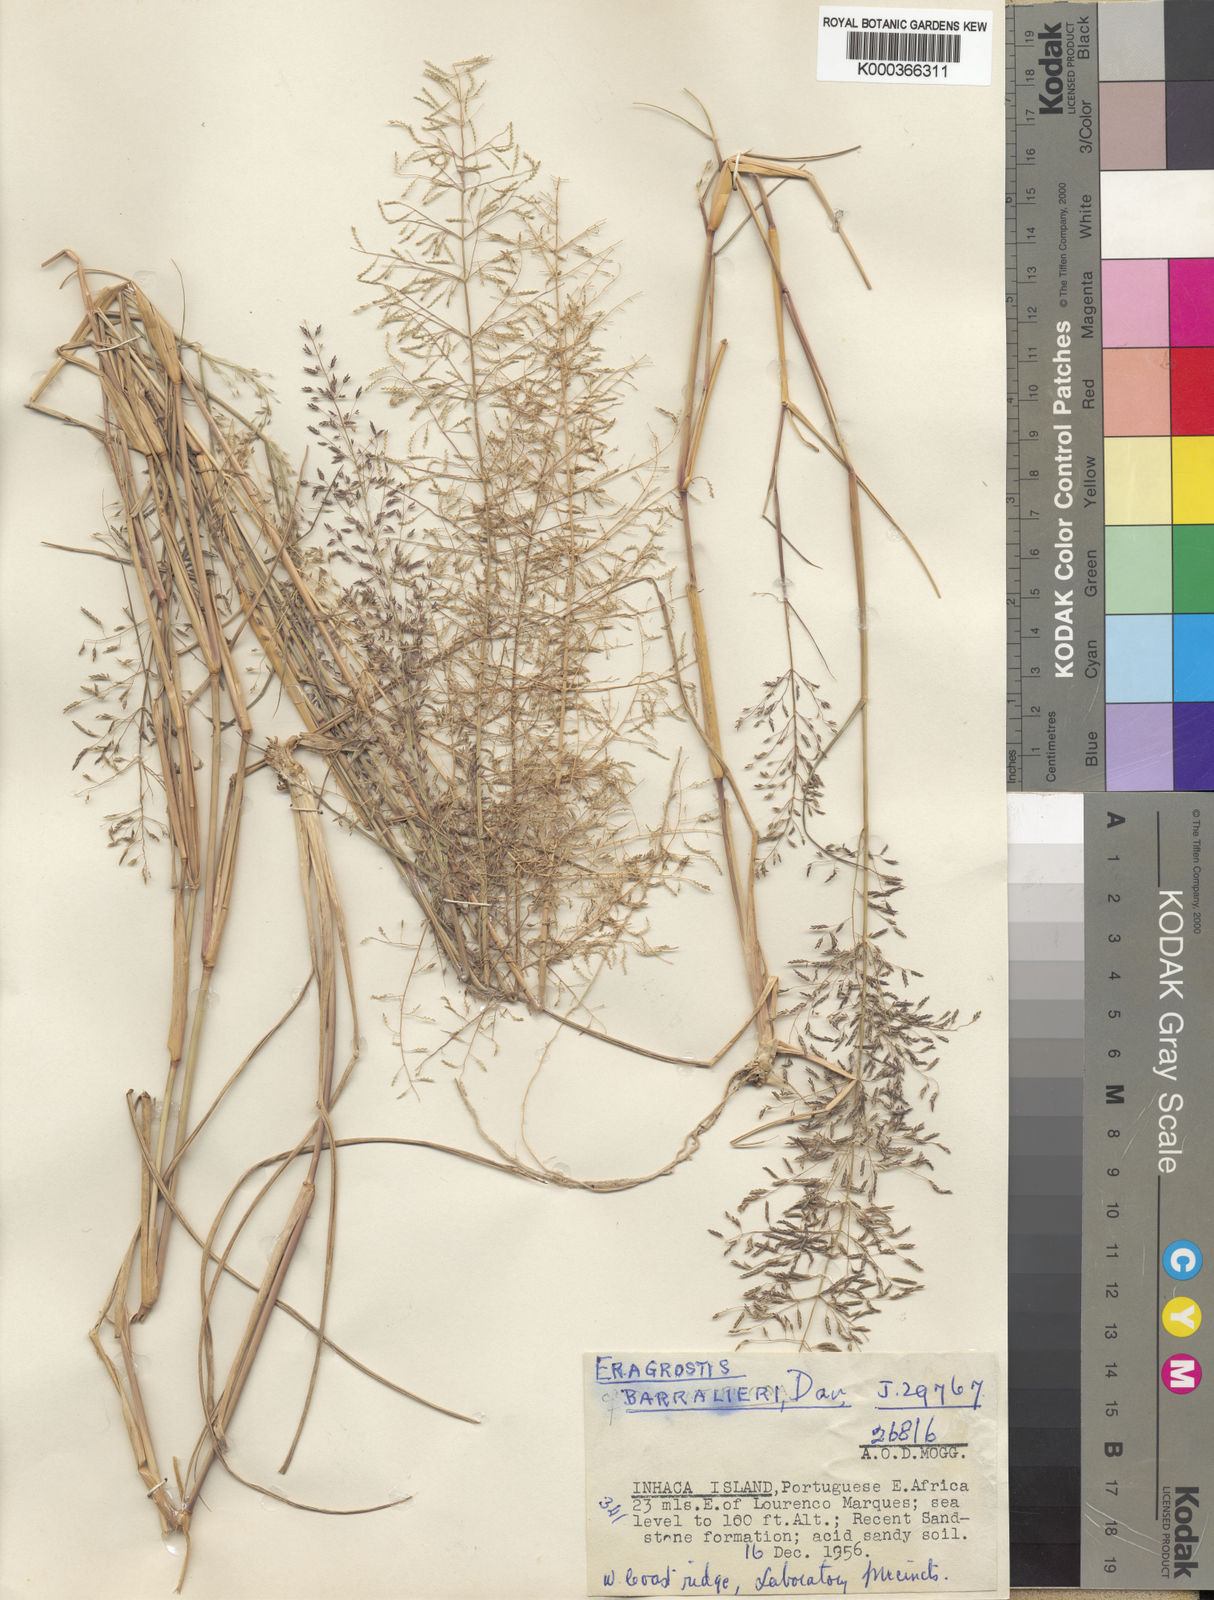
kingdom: Plantae
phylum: Tracheophyta
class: Liliopsida
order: Poales
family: Poaceae
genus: Eragrostis
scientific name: Eragrostis moggii
